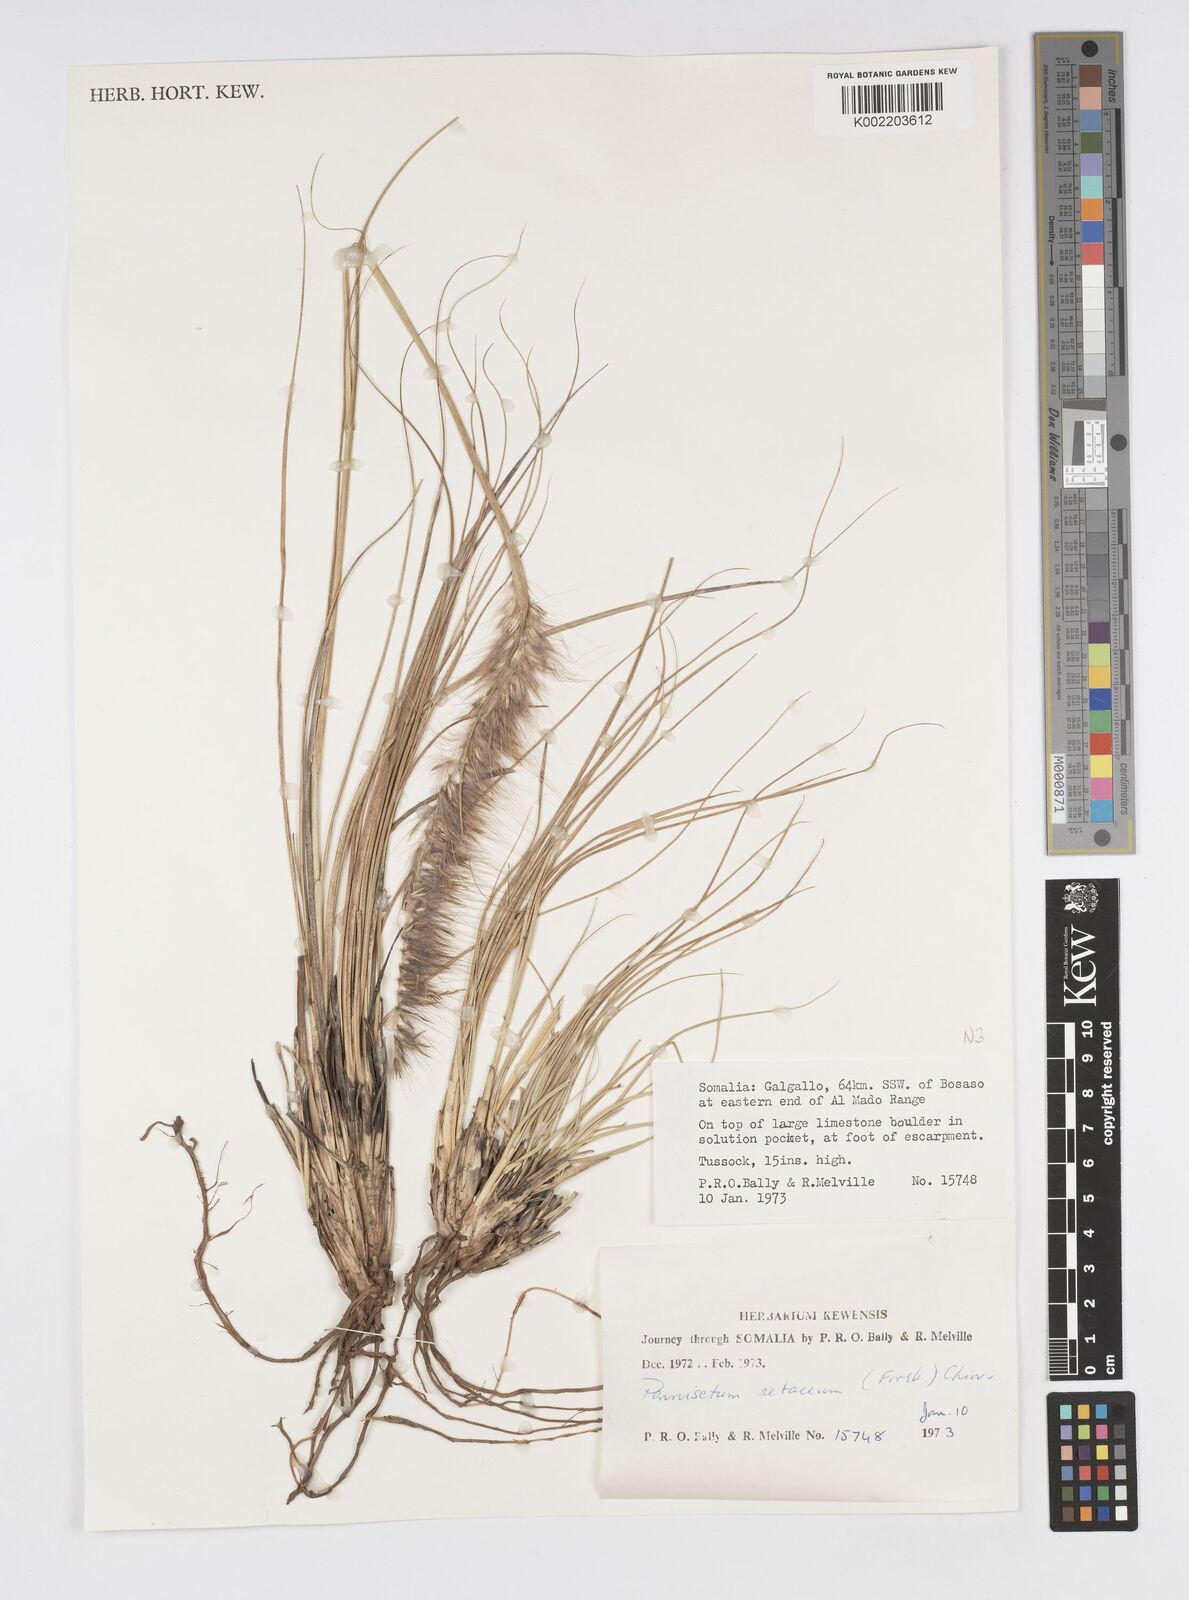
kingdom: Plantae
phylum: Tracheophyta
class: Liliopsida
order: Poales
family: Poaceae
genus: Cenchrus
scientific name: Cenchrus setaceus
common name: Crimson fountaingrass
